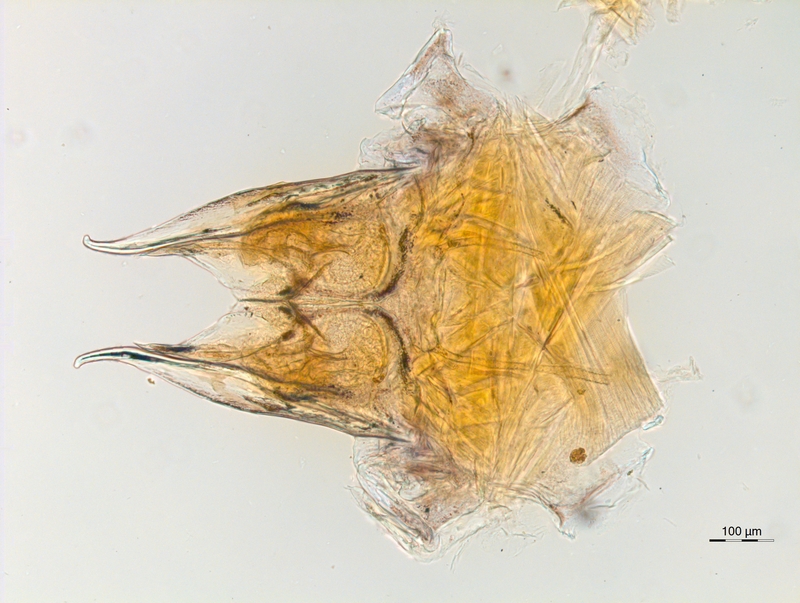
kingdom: Animalia
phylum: Arthropoda
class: Diplopoda
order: Chordeumatida
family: Anthroleucosomatidae
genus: Anamastigona
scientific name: Anamastigona hispidula
